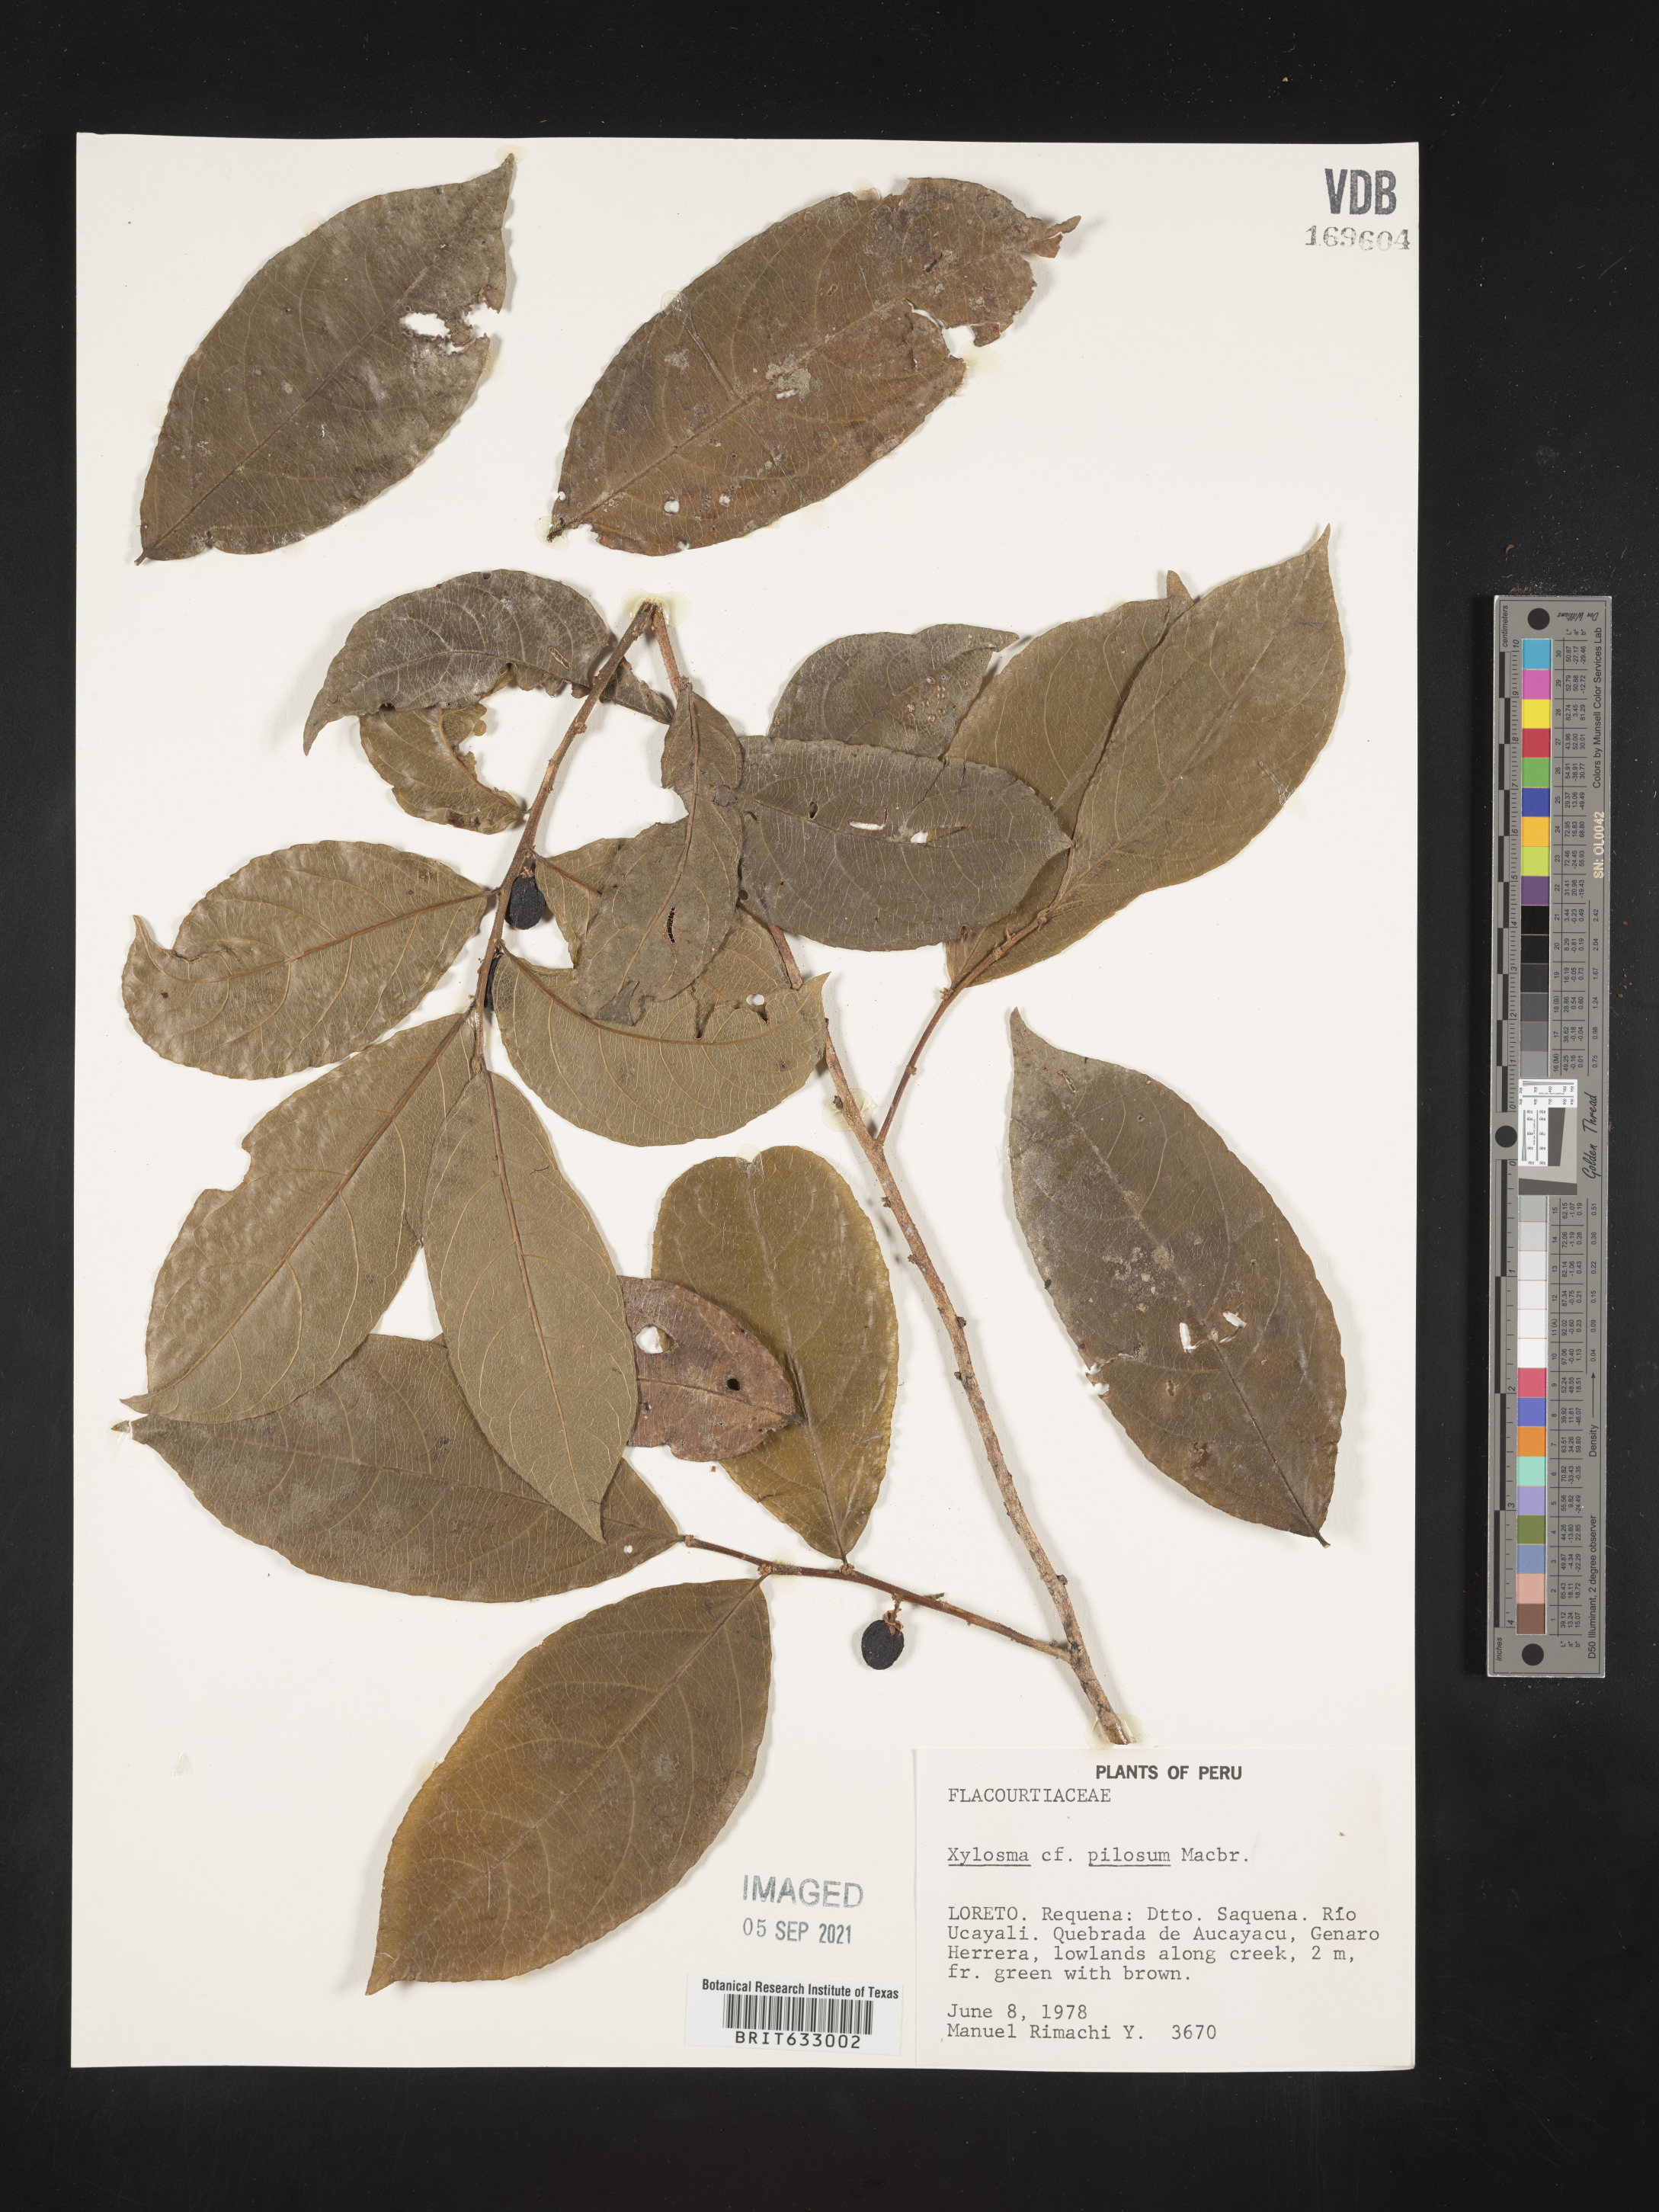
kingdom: Plantae
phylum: Tracheophyta
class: Magnoliopsida
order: Malpighiales
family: Salicaceae
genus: Xylosma
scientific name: Xylosma
